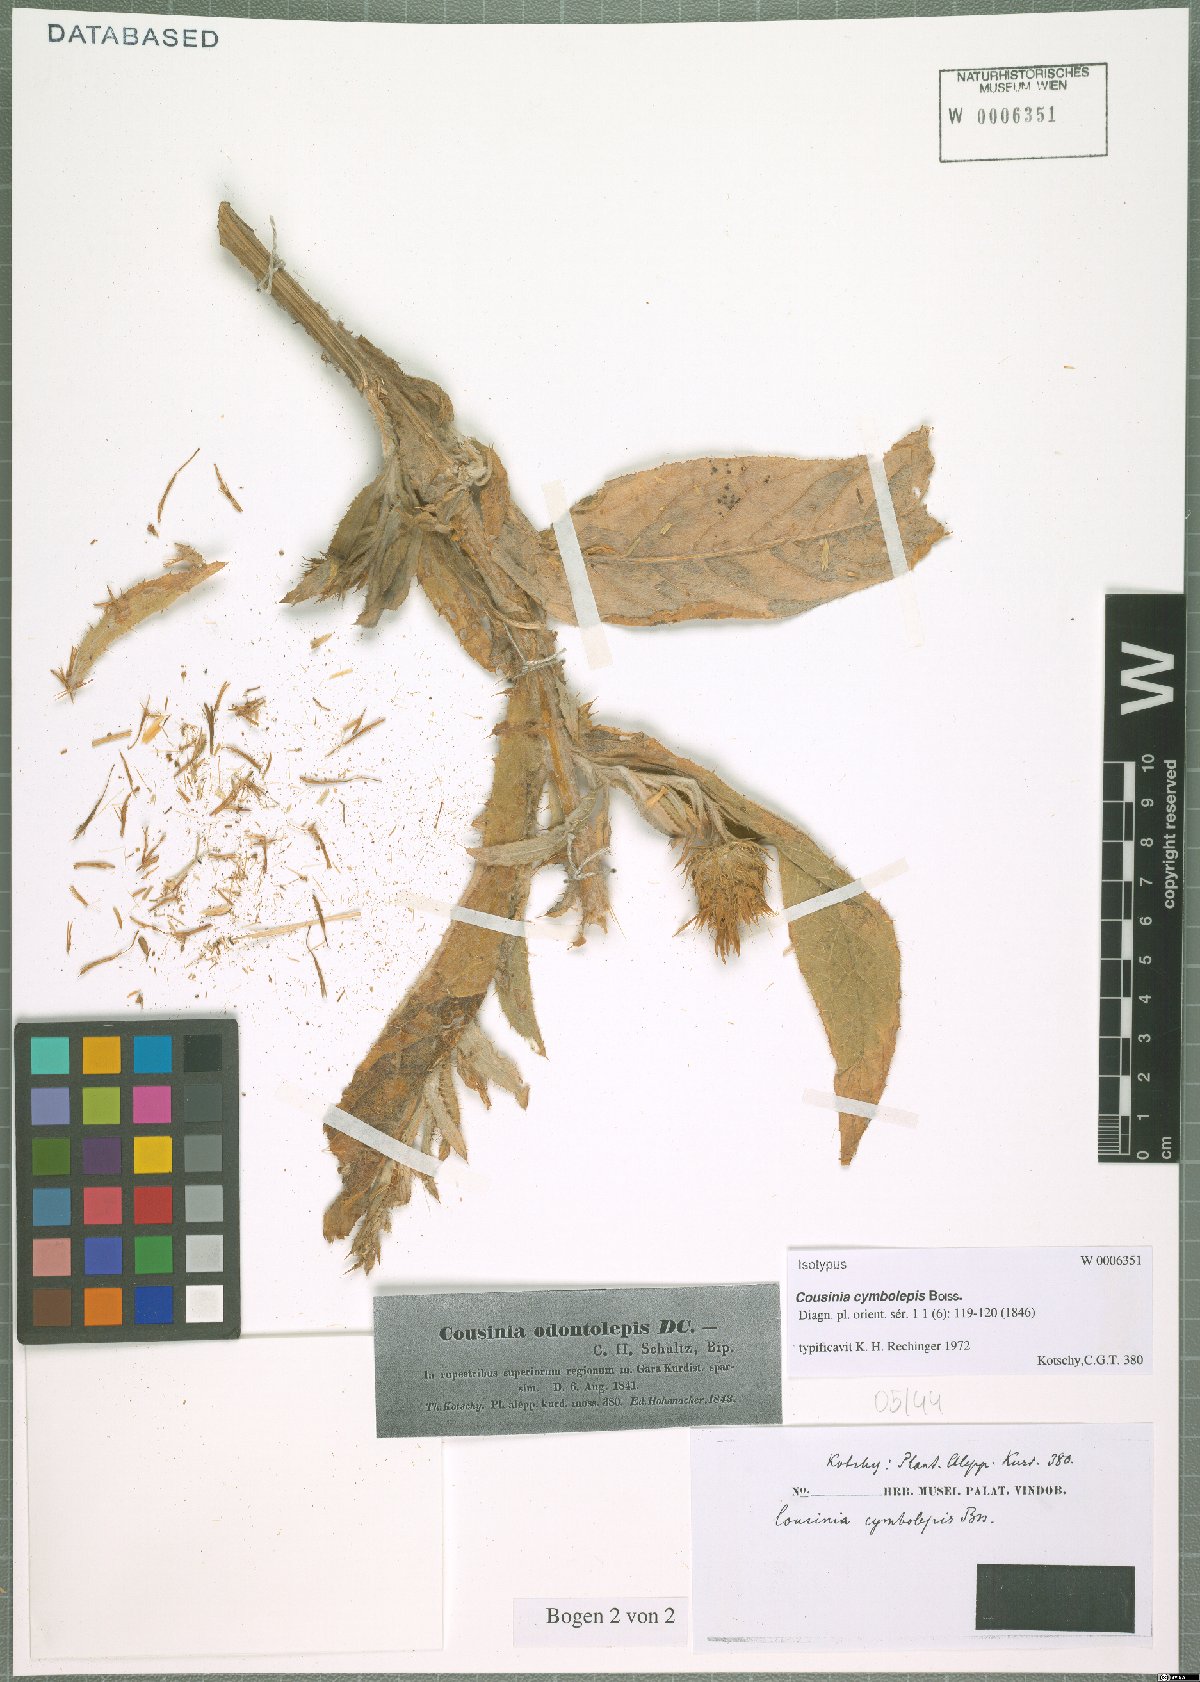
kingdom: Plantae
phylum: Tracheophyta
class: Magnoliopsida
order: Asterales
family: Asteraceae
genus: Cousinia
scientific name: Cousinia odontolepis
